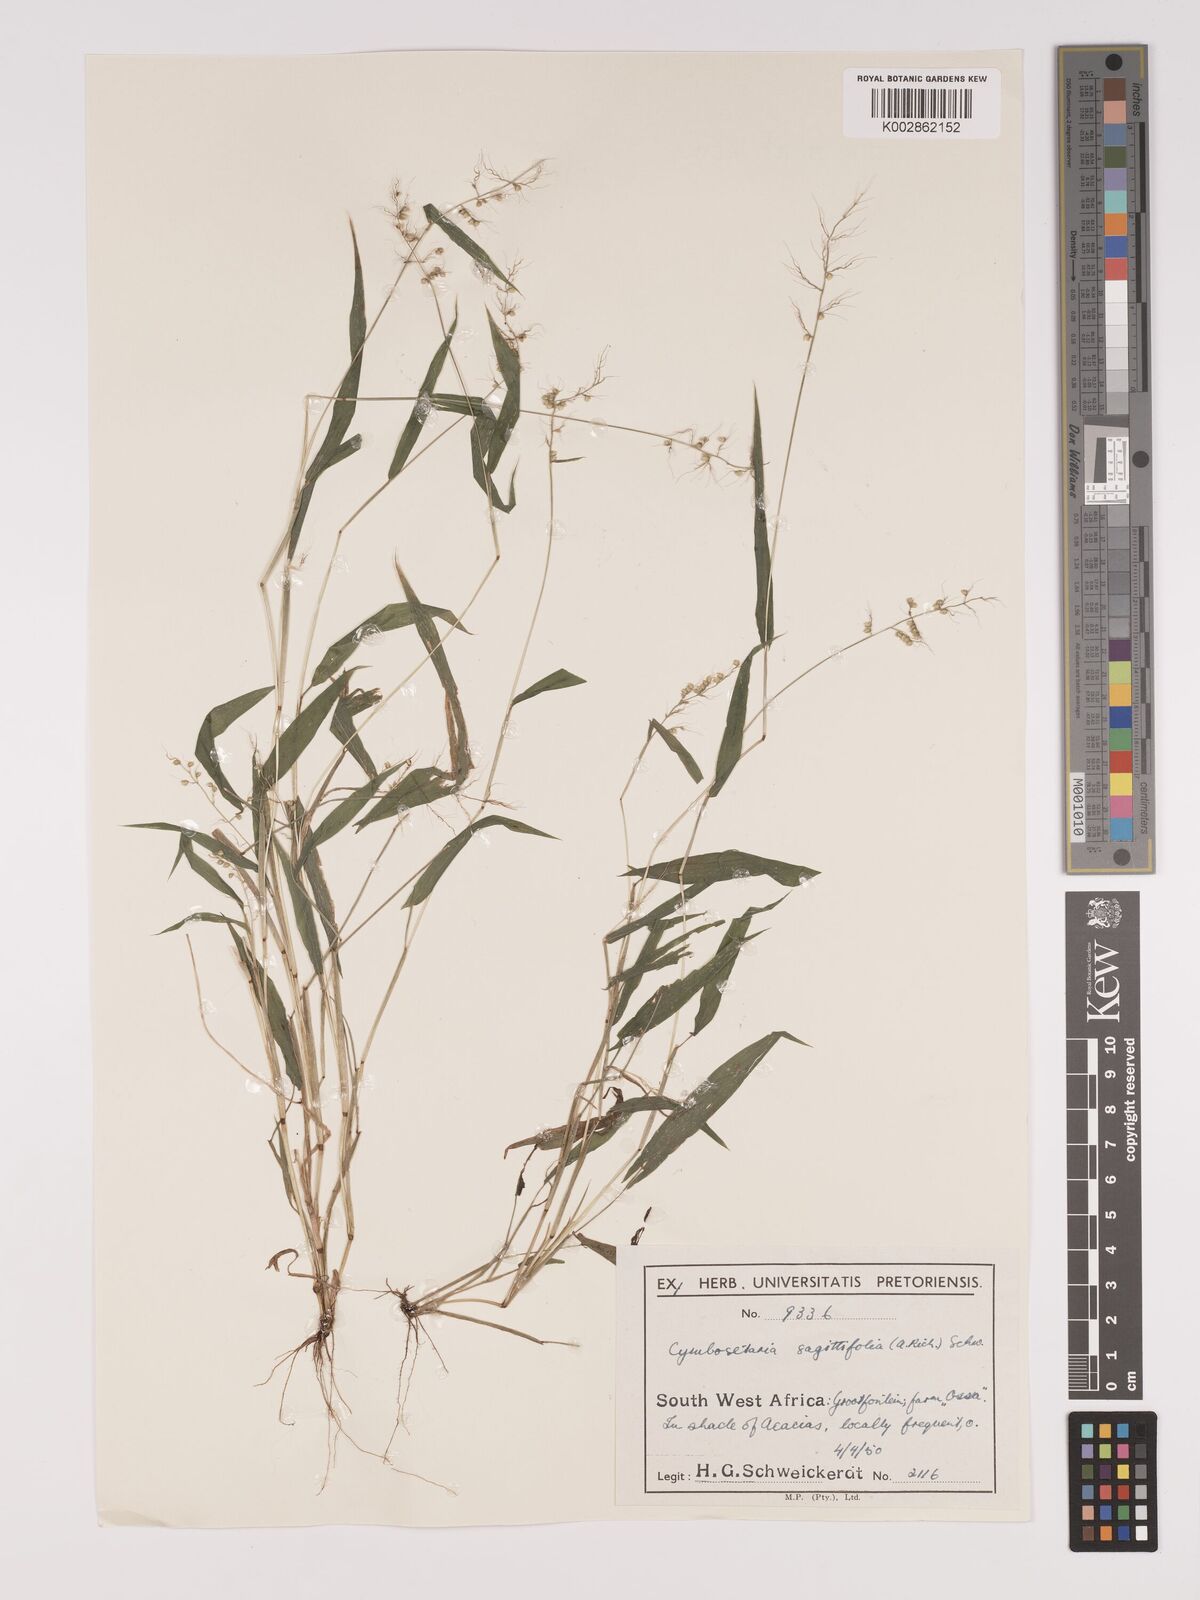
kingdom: Plantae
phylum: Tracheophyta
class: Liliopsida
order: Poales
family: Poaceae
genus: Setaria
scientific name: Setaria sagittifolia
